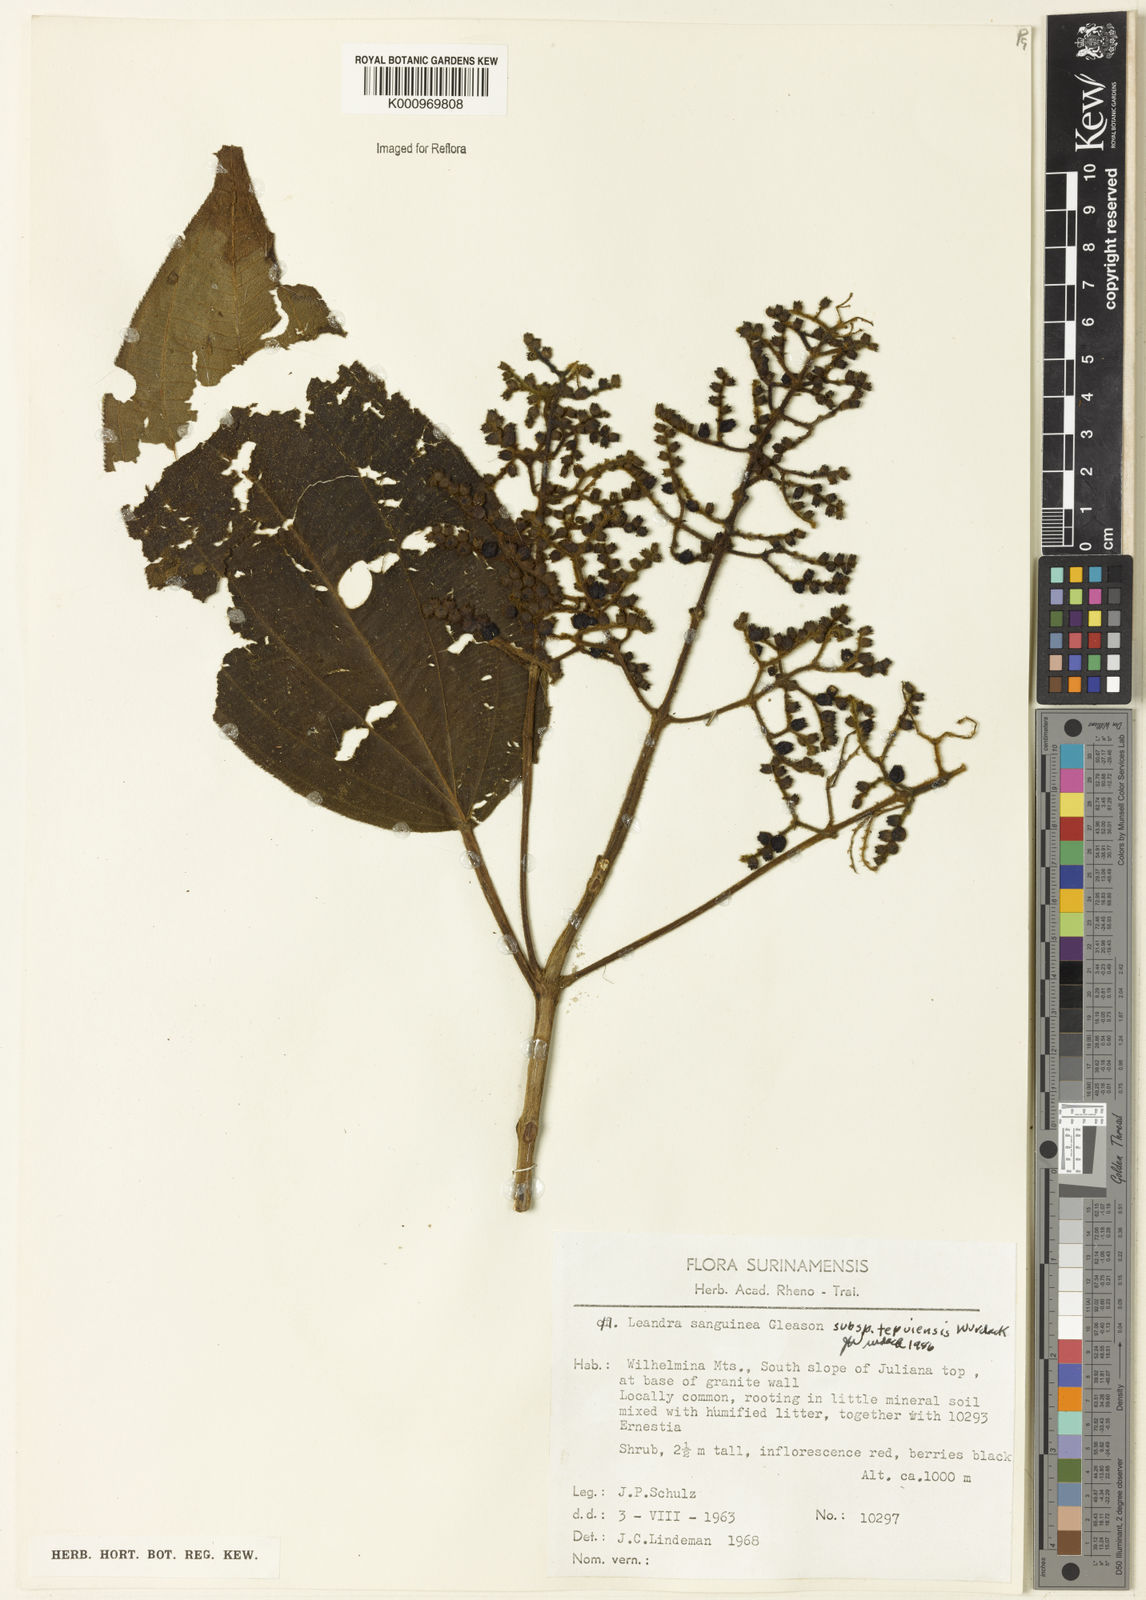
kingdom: Plantae
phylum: Tracheophyta
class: Magnoliopsida
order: Myrtales
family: Melastomataceae
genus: Miconia
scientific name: Miconia leasanguinea
